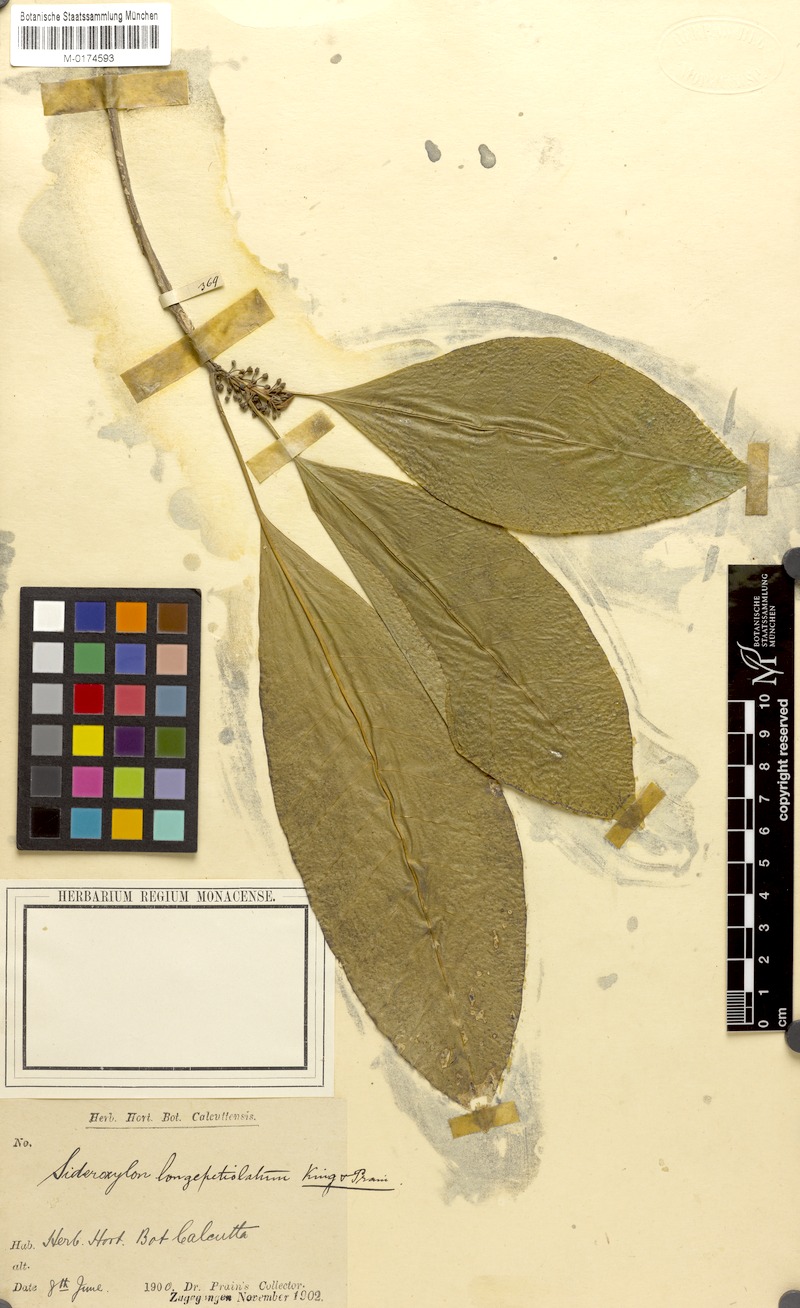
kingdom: Plantae
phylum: Tracheophyta
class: Magnoliopsida
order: Ericales
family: Sapotaceae
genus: Planchonella
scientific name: Planchonella longipetiolata
